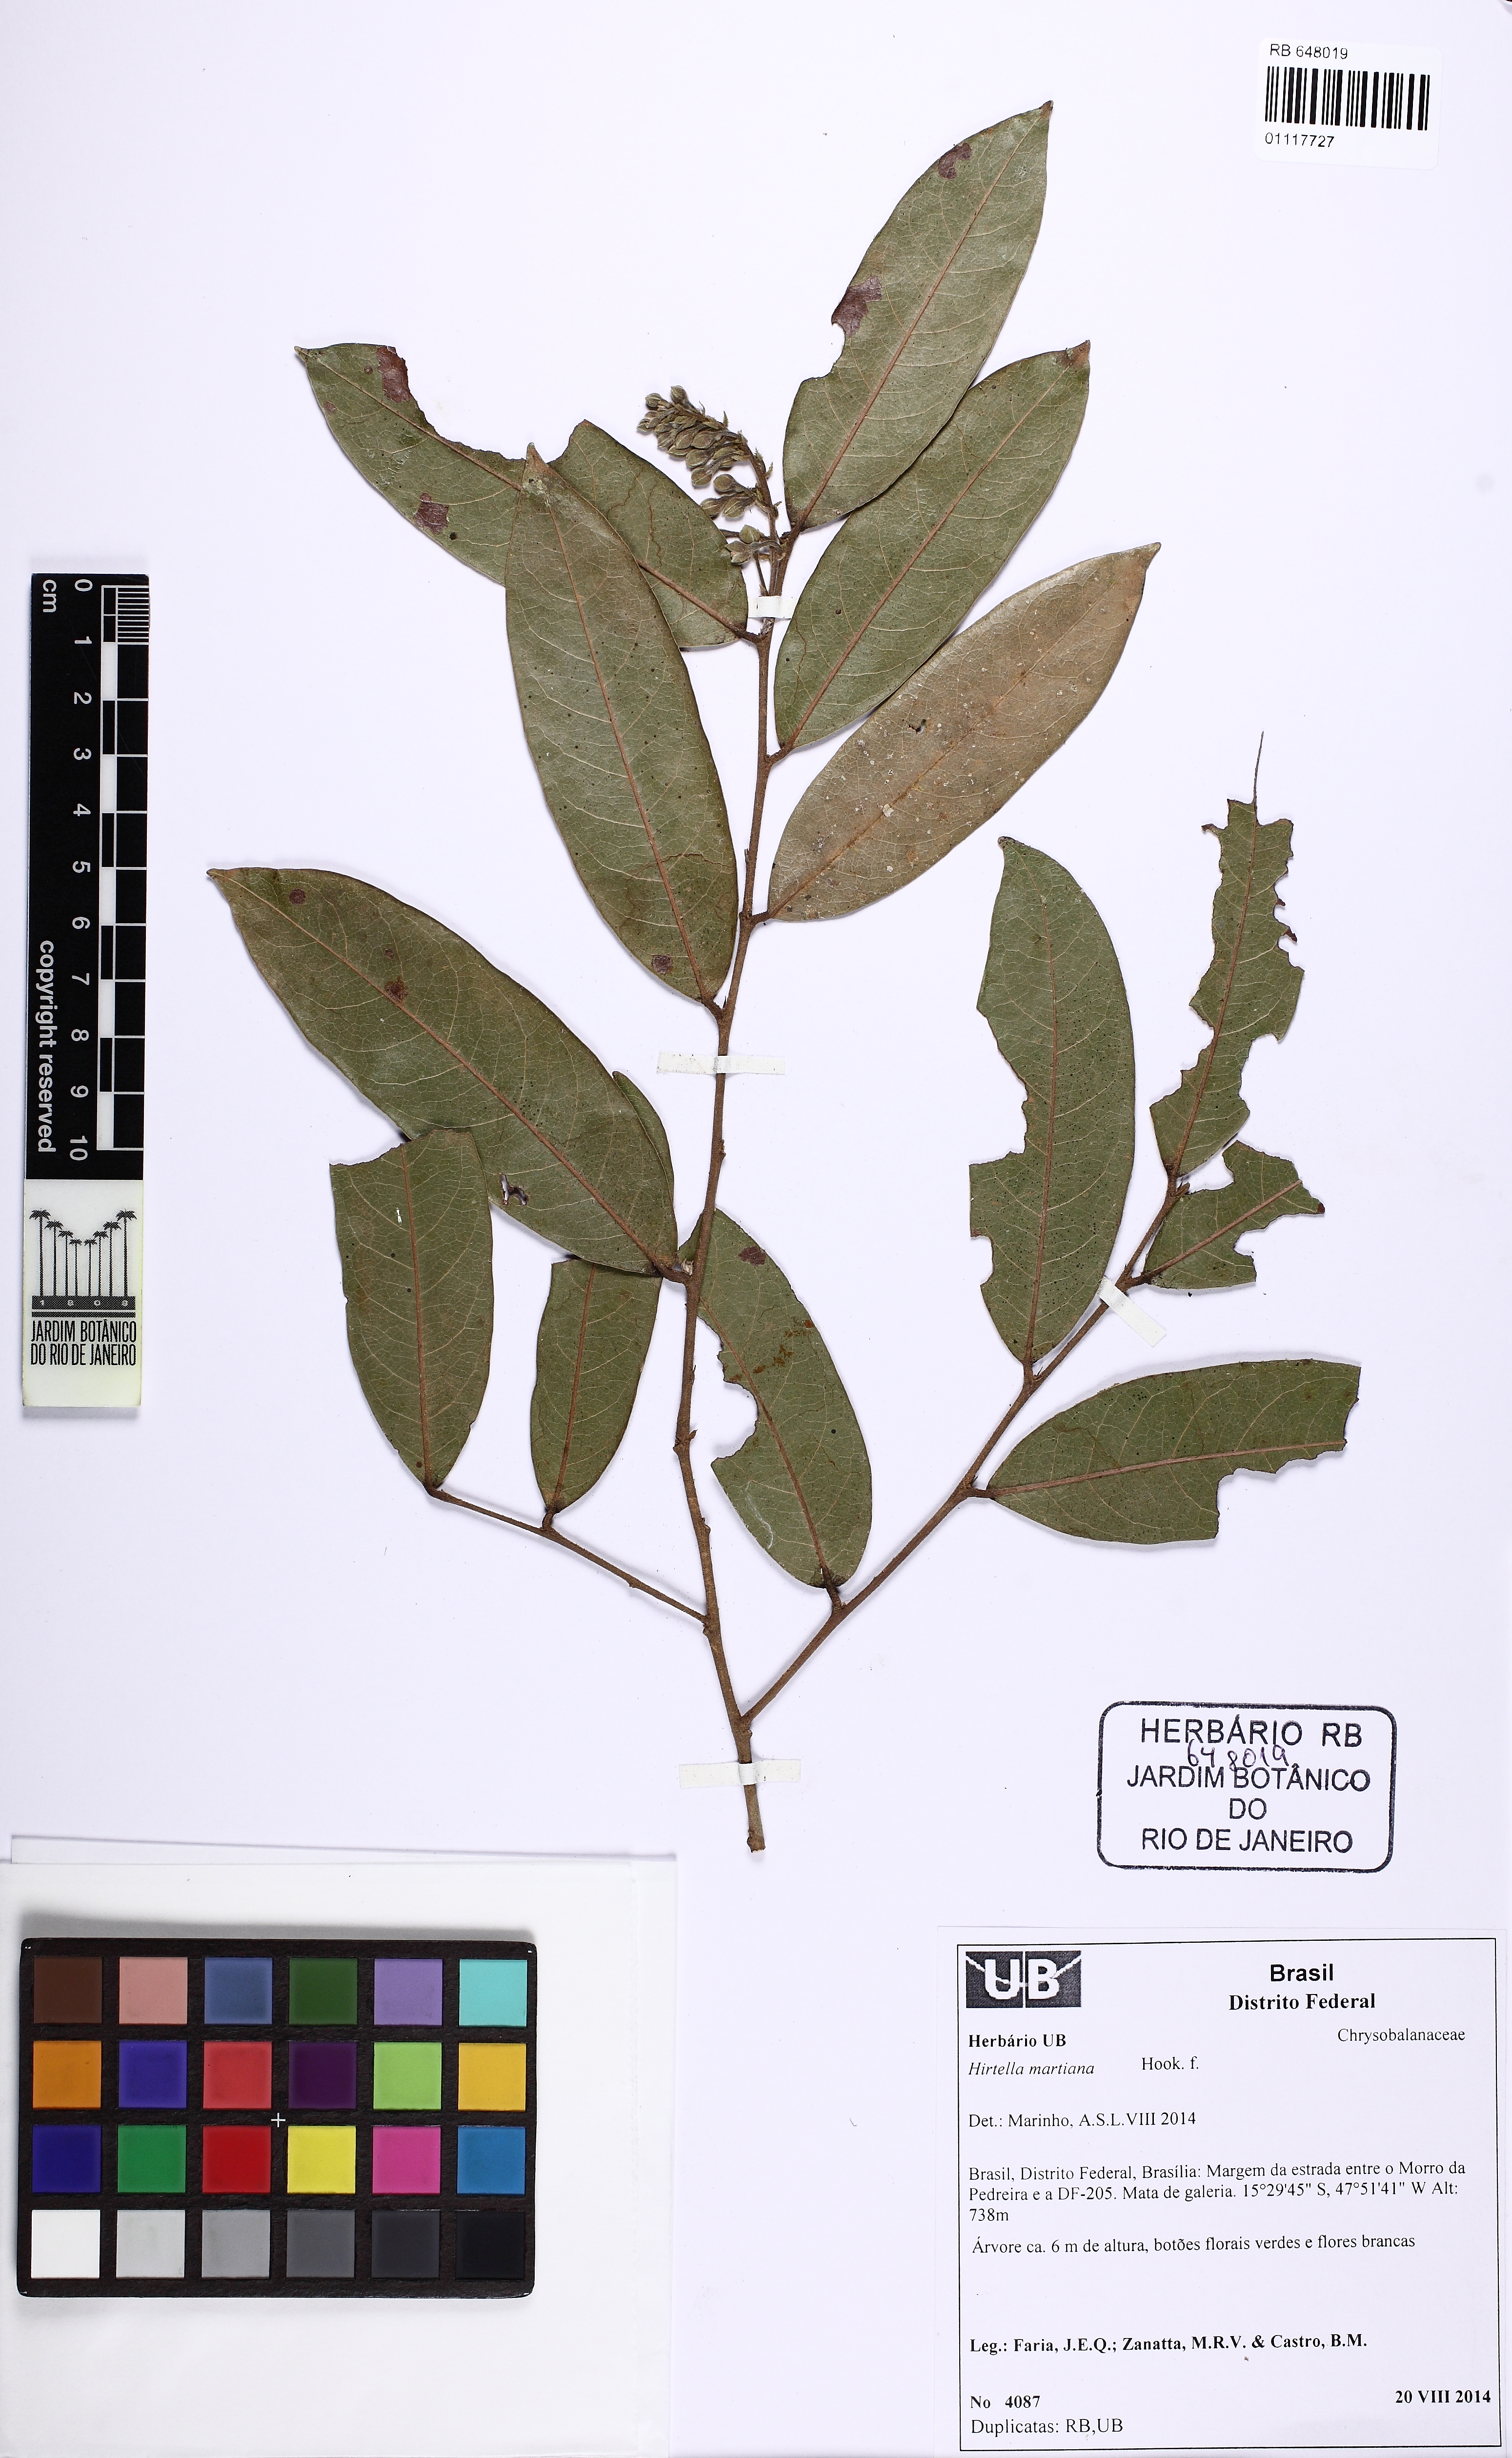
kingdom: Plantae
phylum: Tracheophyta
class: Magnoliopsida
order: Malpighiales
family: Chrysobalanaceae
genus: Hirtella
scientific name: Hirtella martiana
